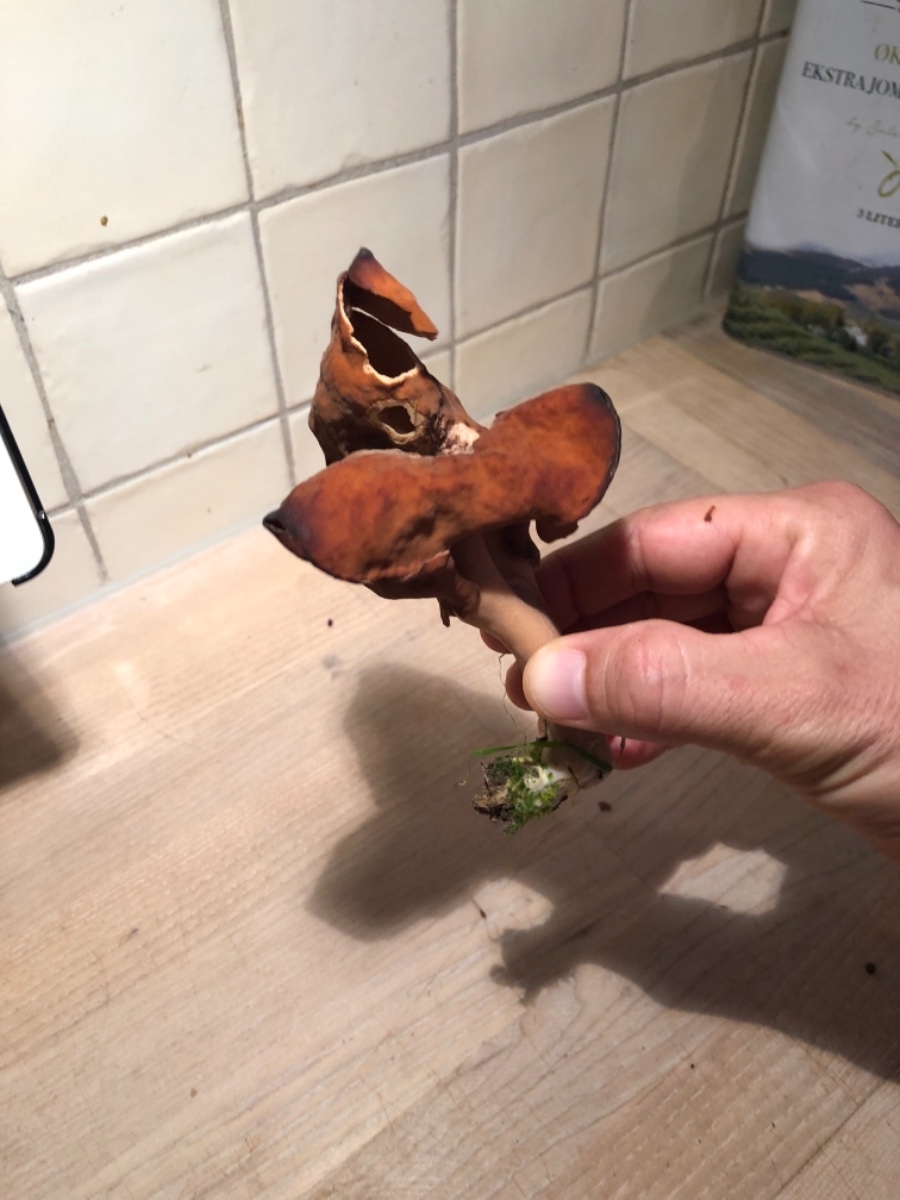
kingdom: Fungi
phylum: Ascomycota
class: Pezizomycetes
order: Pezizales
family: Discinaceae
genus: Gyromitra
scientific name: Gyromitra infula
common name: bispehue-stenmorkel
